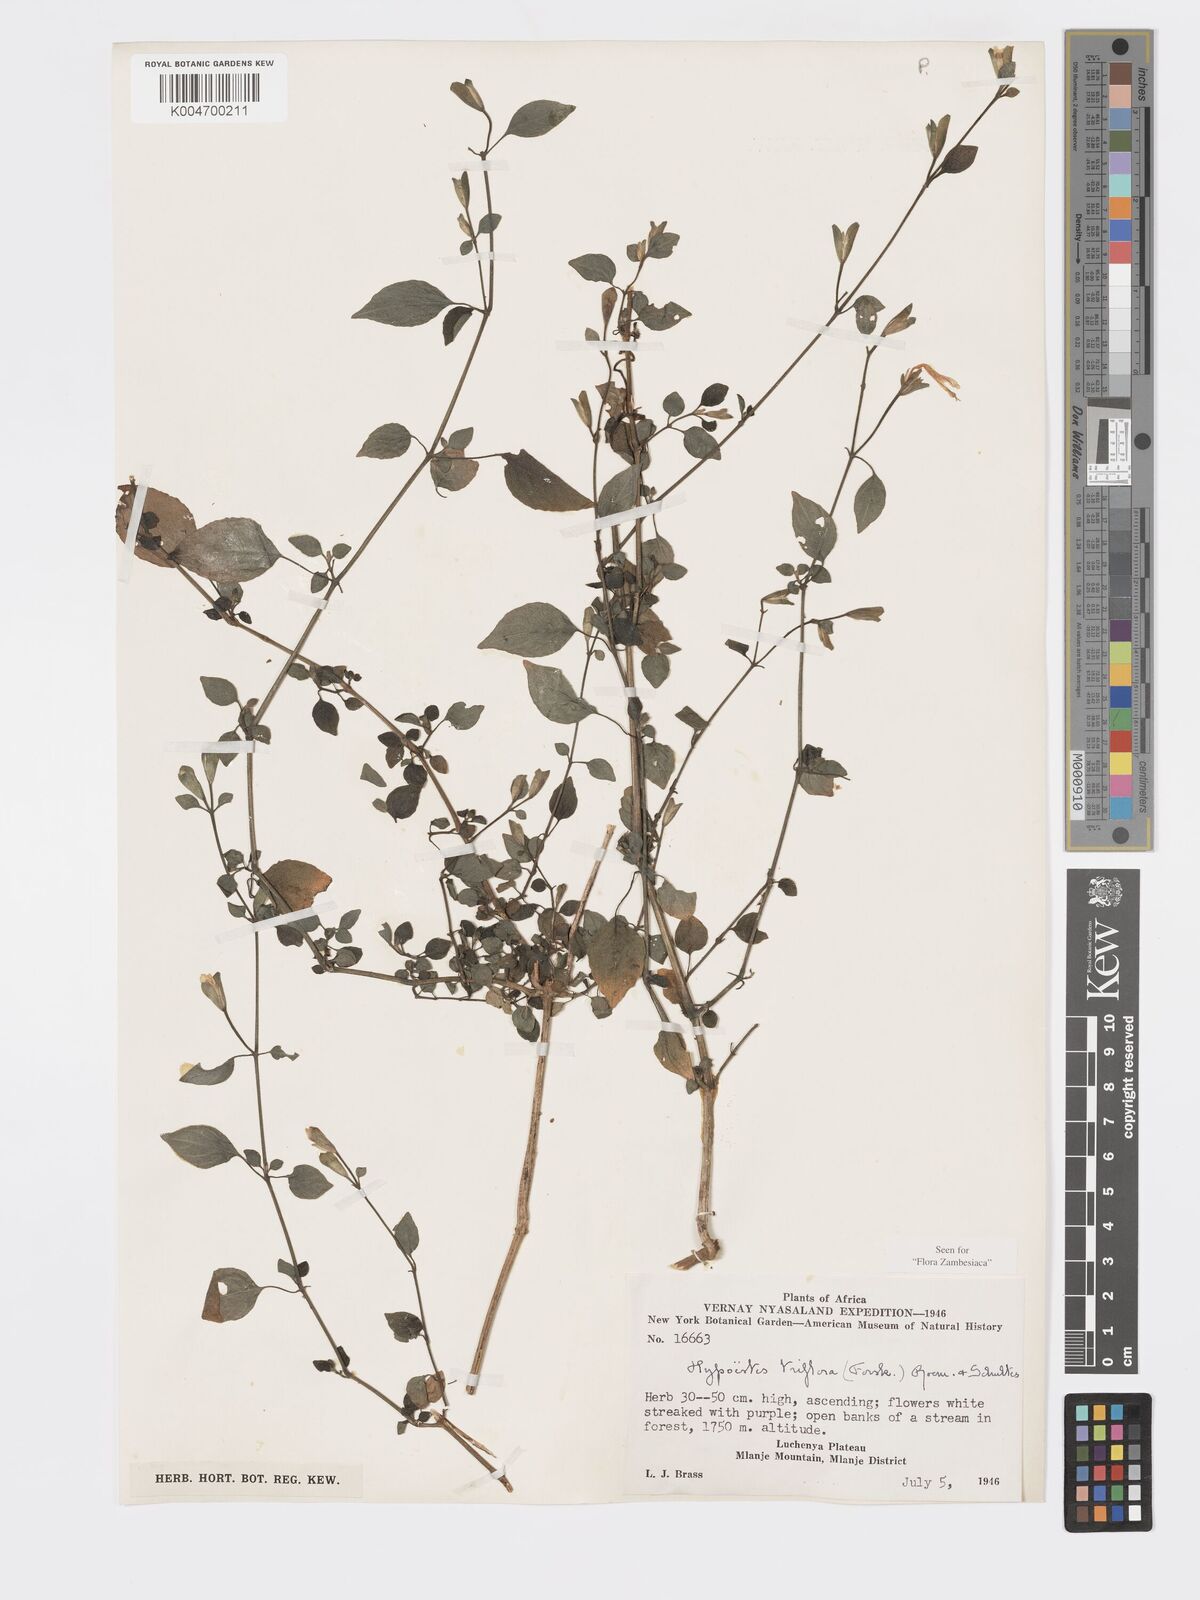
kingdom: Plantae
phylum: Tracheophyta
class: Magnoliopsida
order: Lamiales
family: Acanthaceae
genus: Hypoestes
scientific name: Hypoestes triflora
